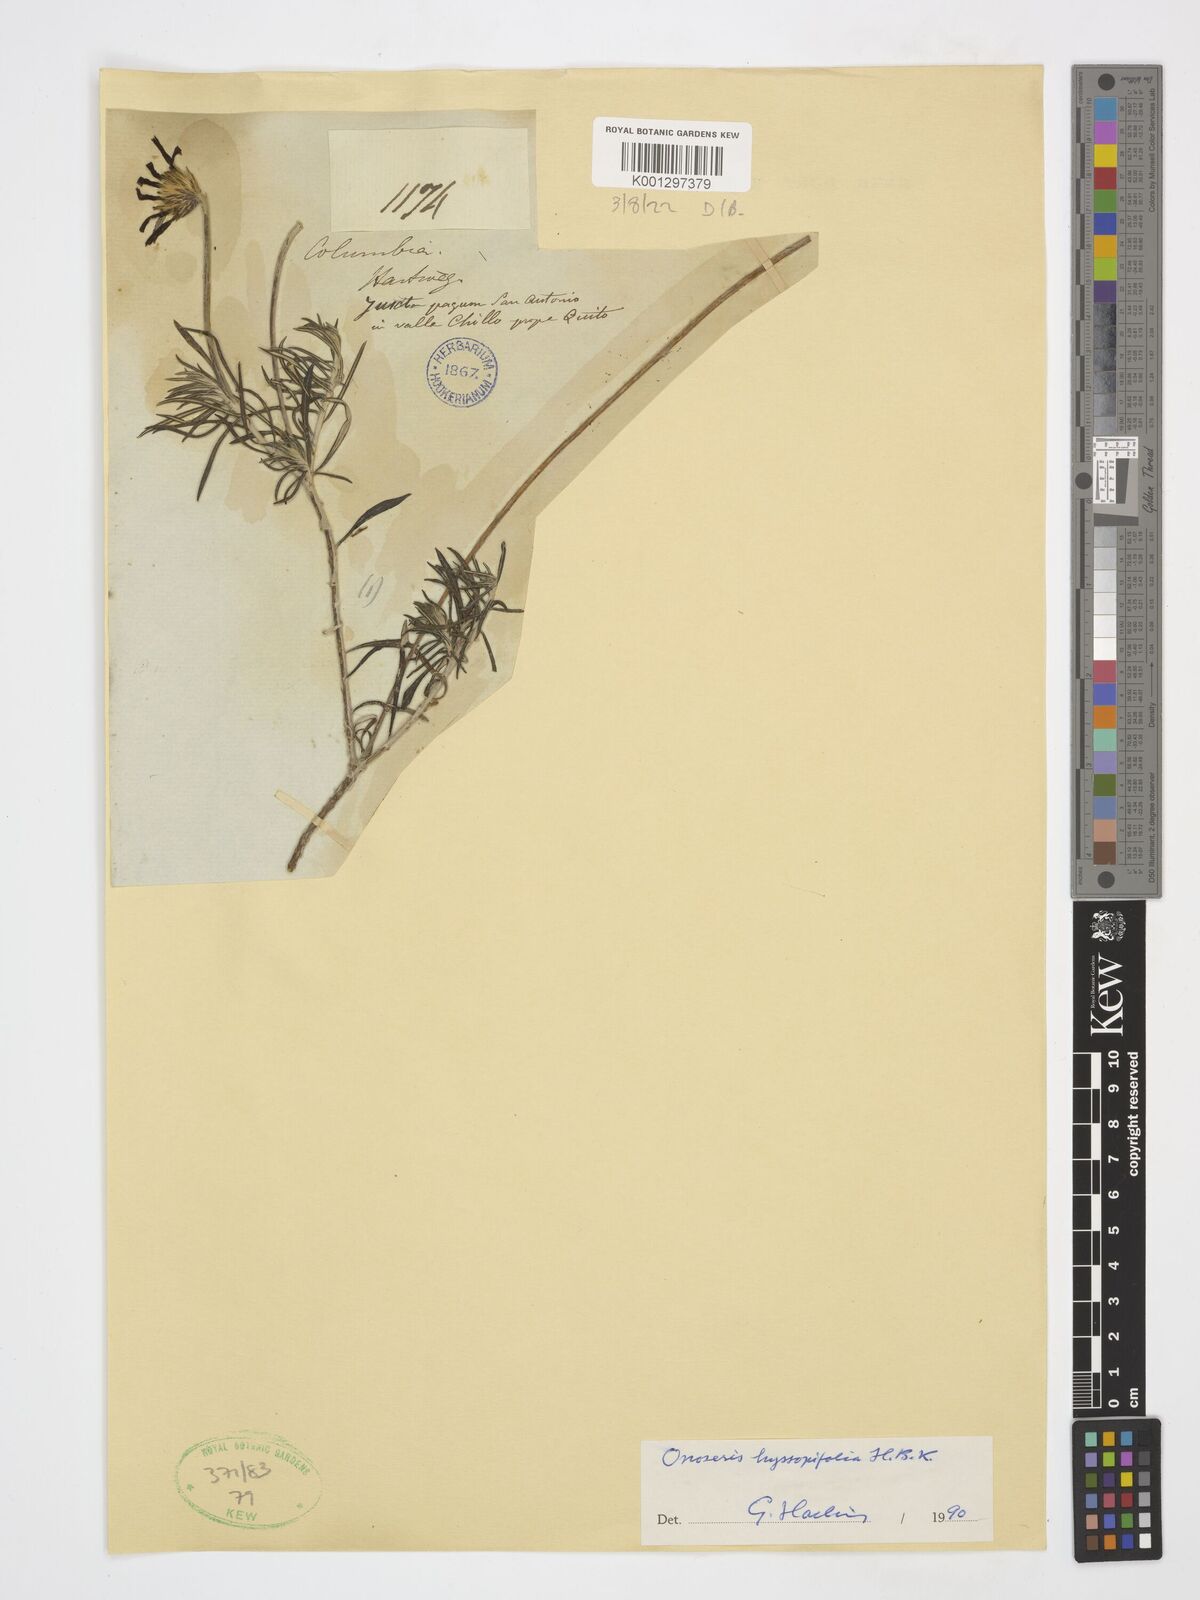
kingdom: Plantae
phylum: Tracheophyta
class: Magnoliopsida
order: Asterales
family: Asteraceae
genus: Onoseris
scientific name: Onoseris hyssopifolia
